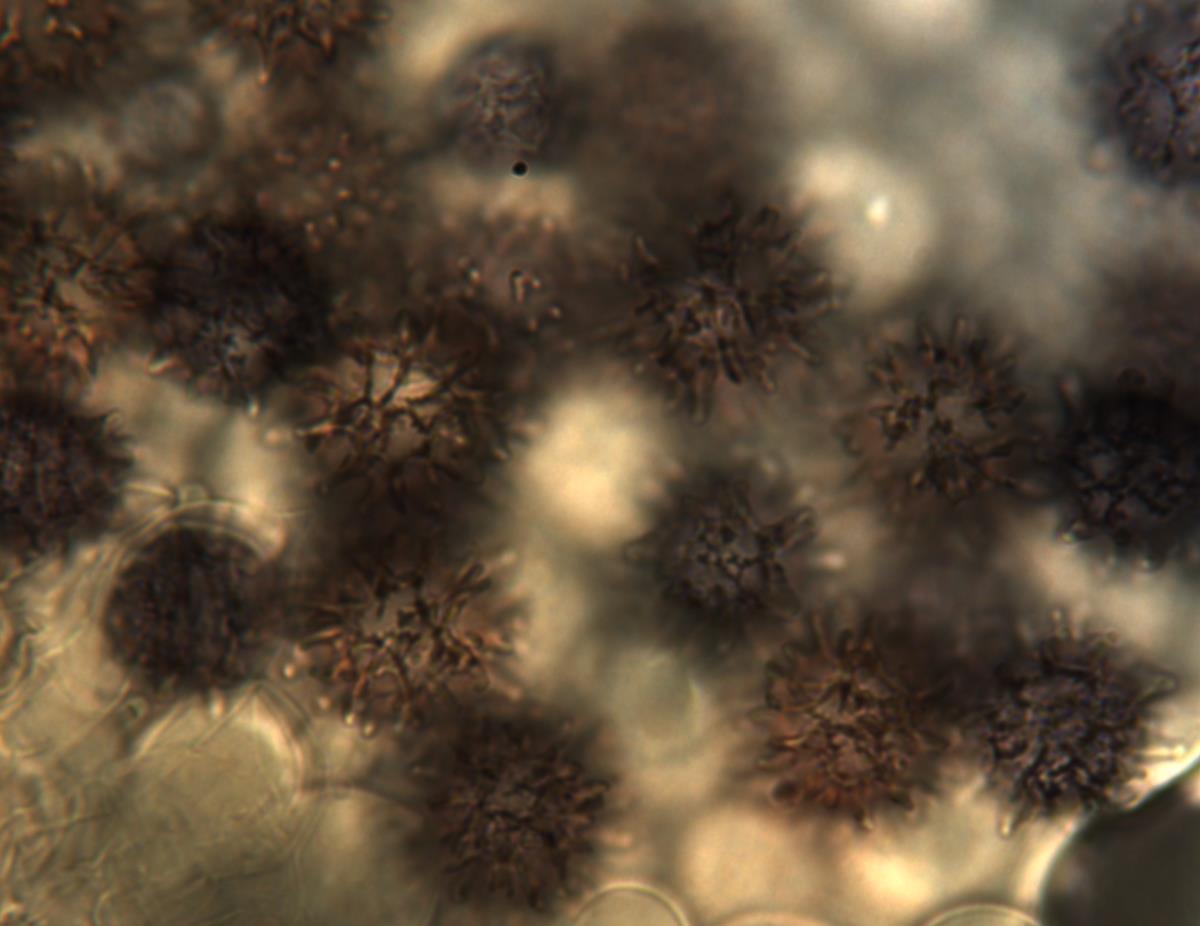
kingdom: Fungi
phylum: Basidiomycota
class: Agaricomycetes
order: Russulales
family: Russulaceae
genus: Russula
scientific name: Russula osphranticarpa
